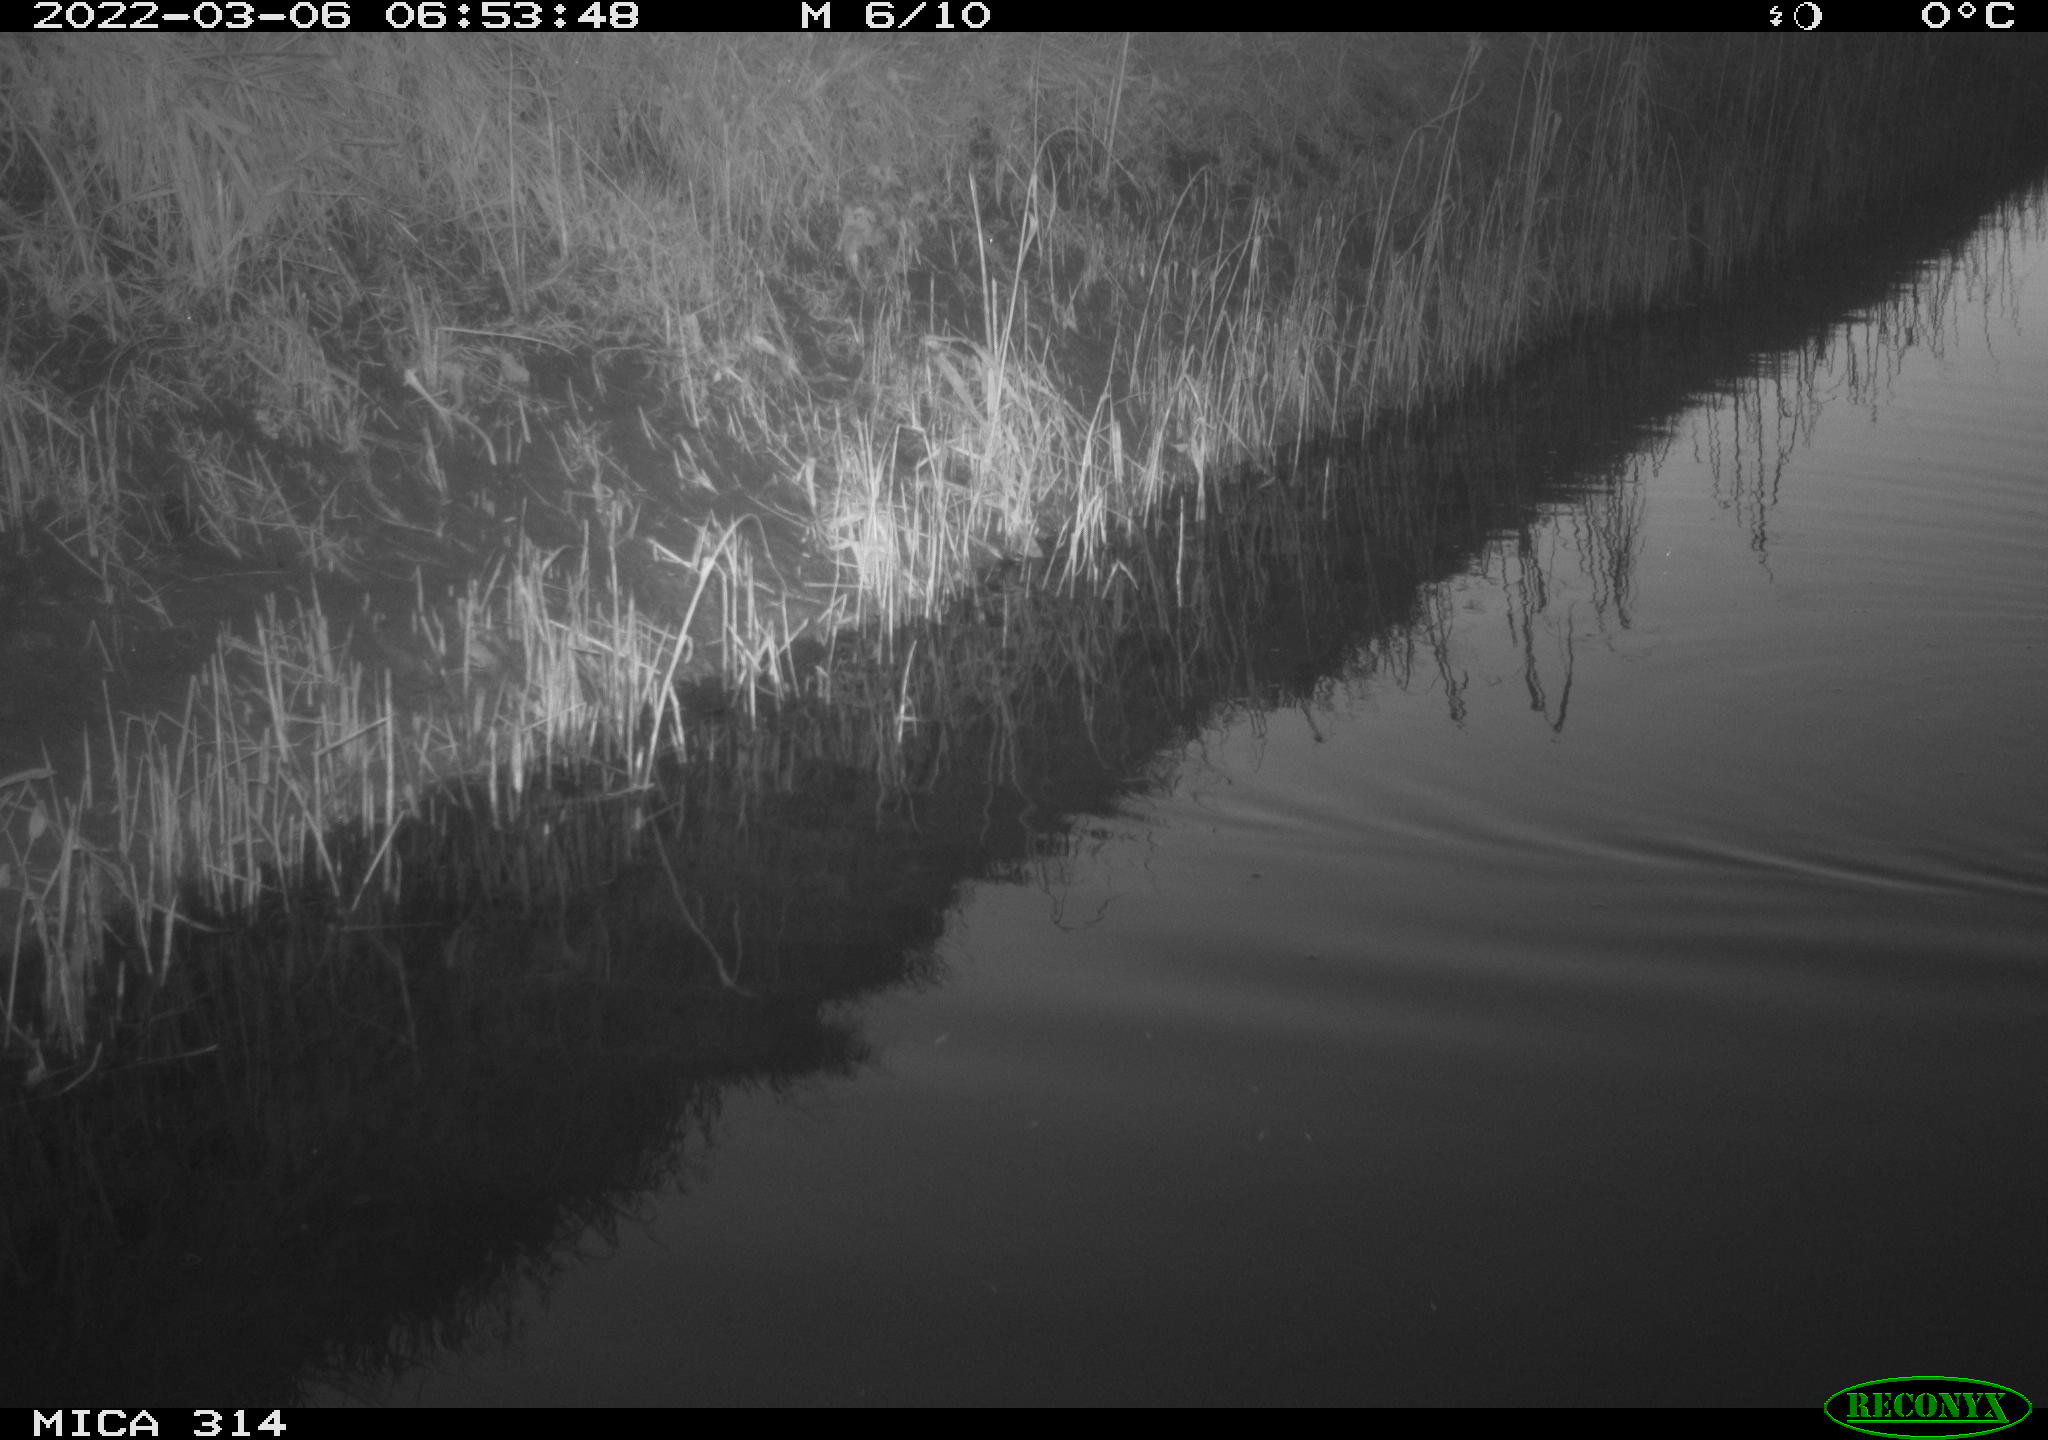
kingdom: Animalia
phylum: Chordata
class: Aves
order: Gruiformes
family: Rallidae
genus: Gallinula
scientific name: Gallinula chloropus
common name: Common moorhen
